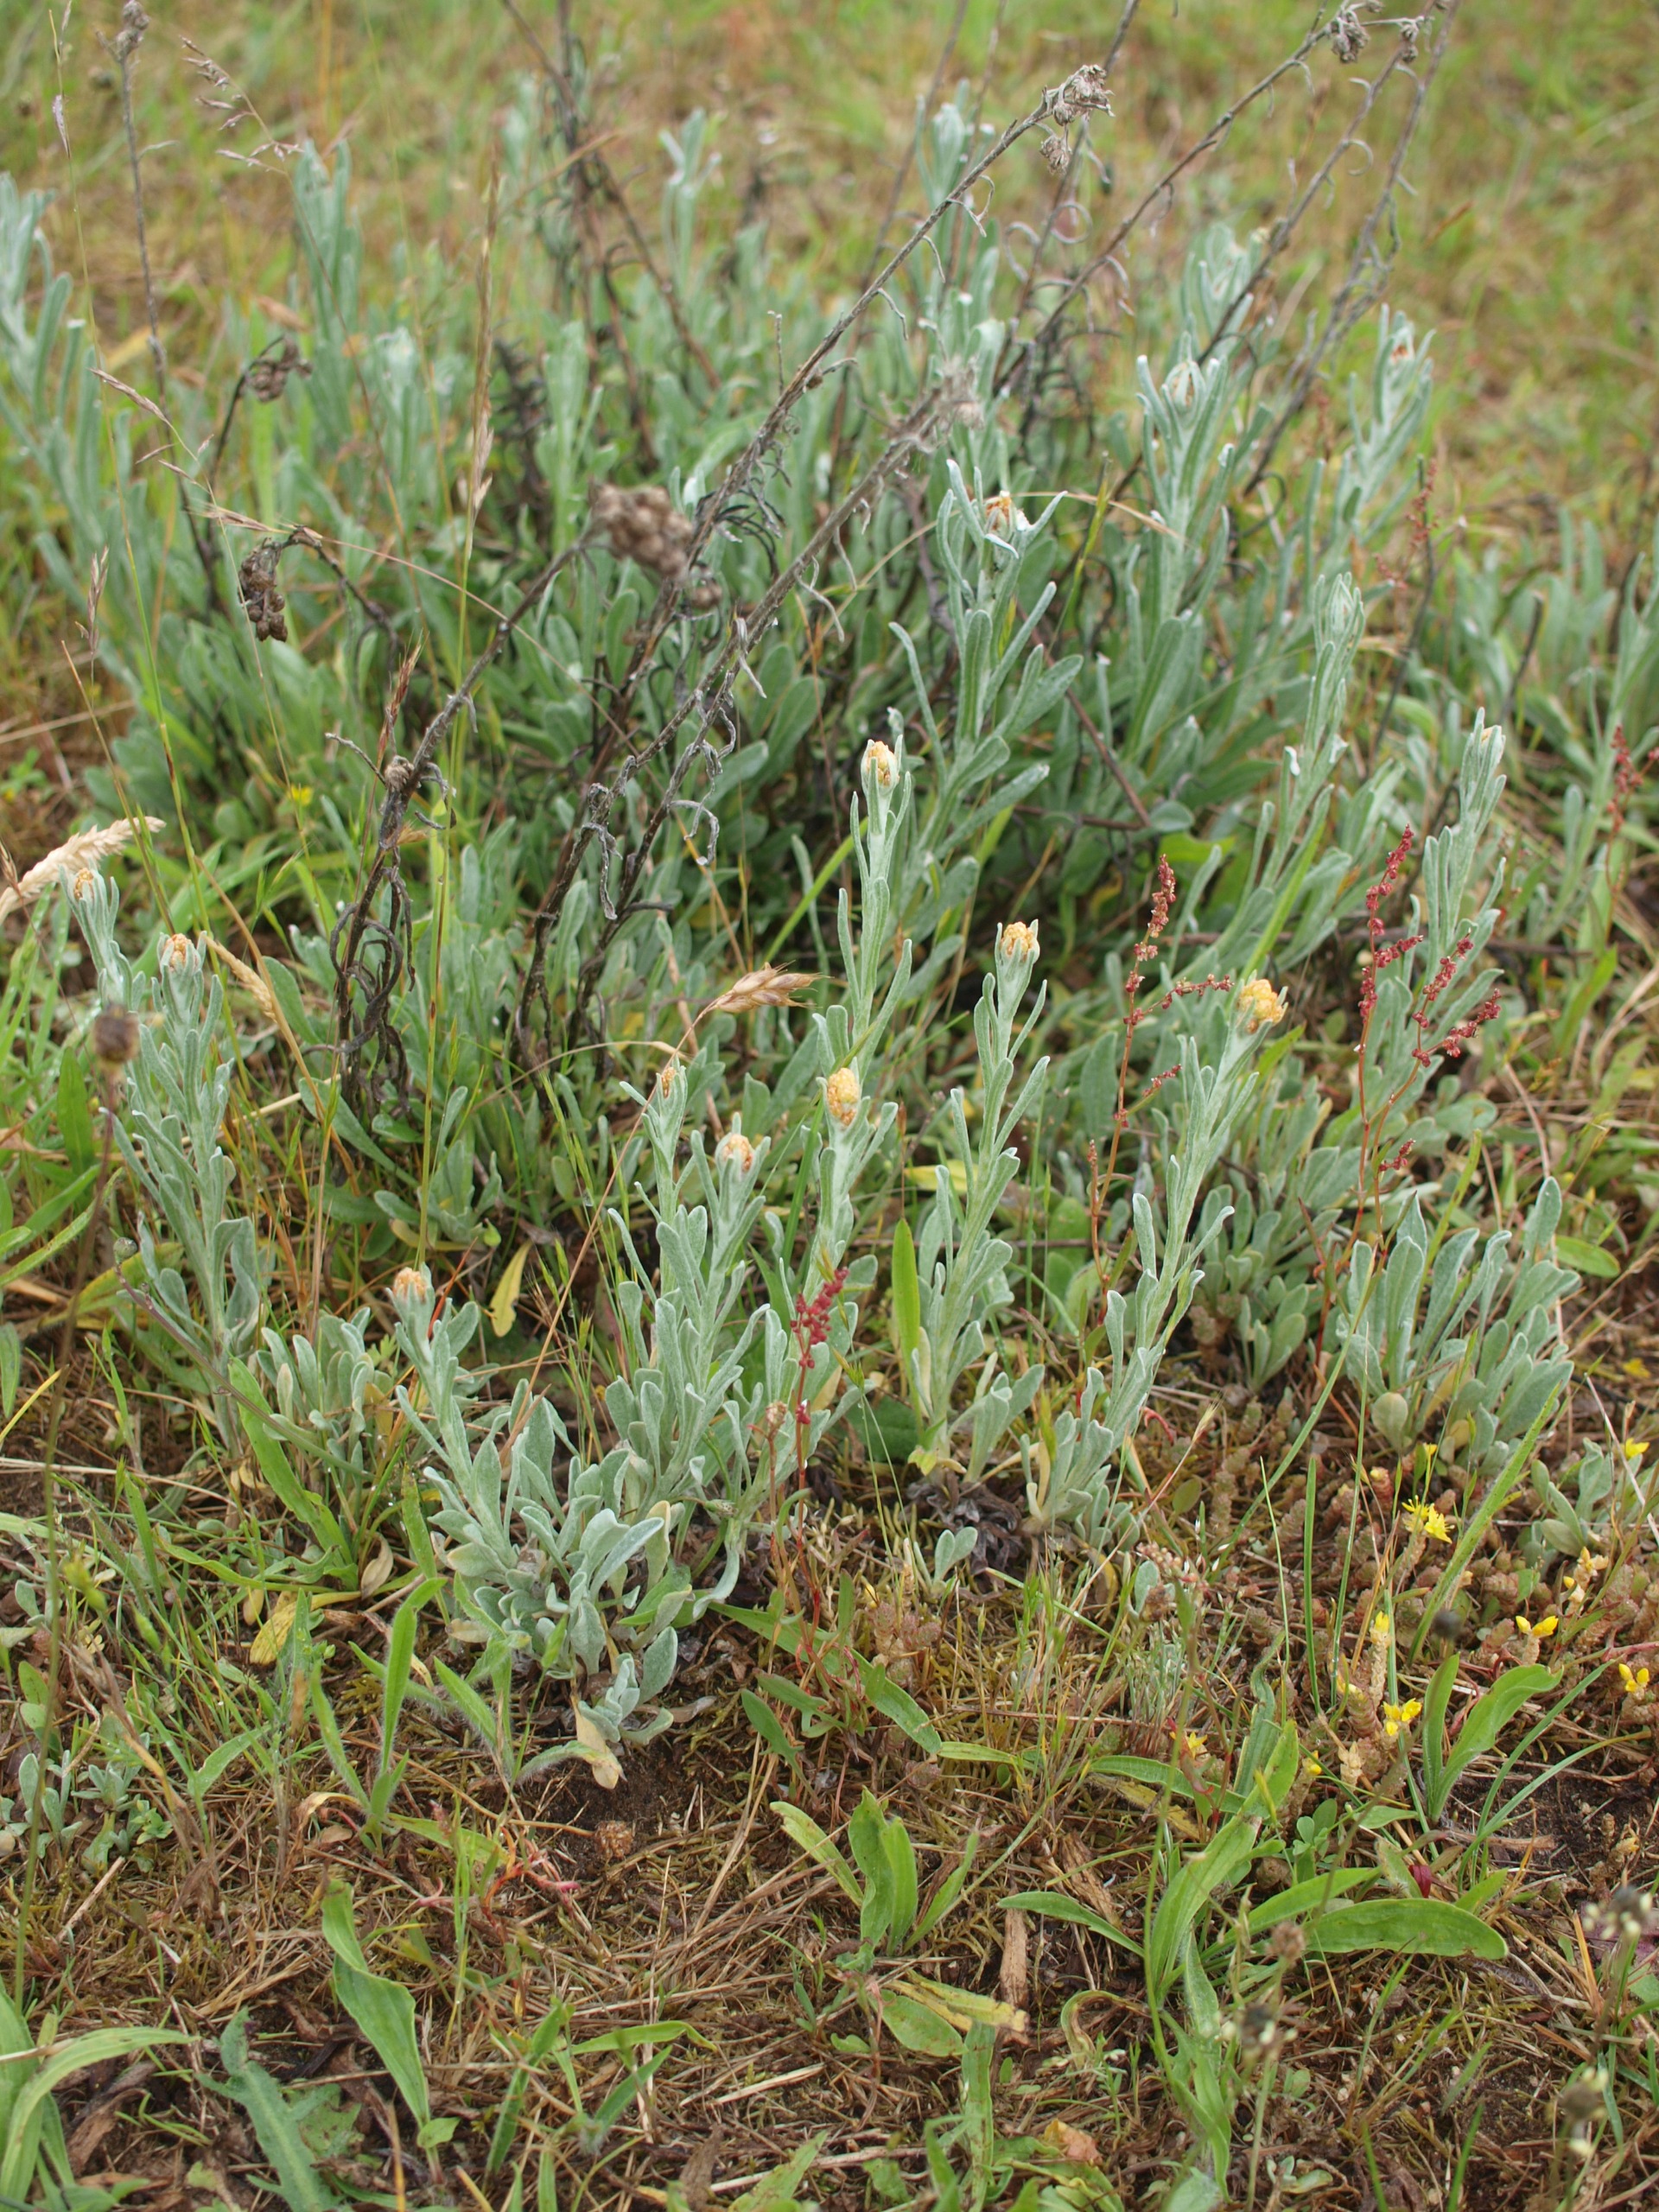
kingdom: Plantae
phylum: Tracheophyta
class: Magnoliopsida
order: Asterales
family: Asteraceae
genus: Helichrysum
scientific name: Helichrysum arenarium
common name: Gul evighedsblomst
